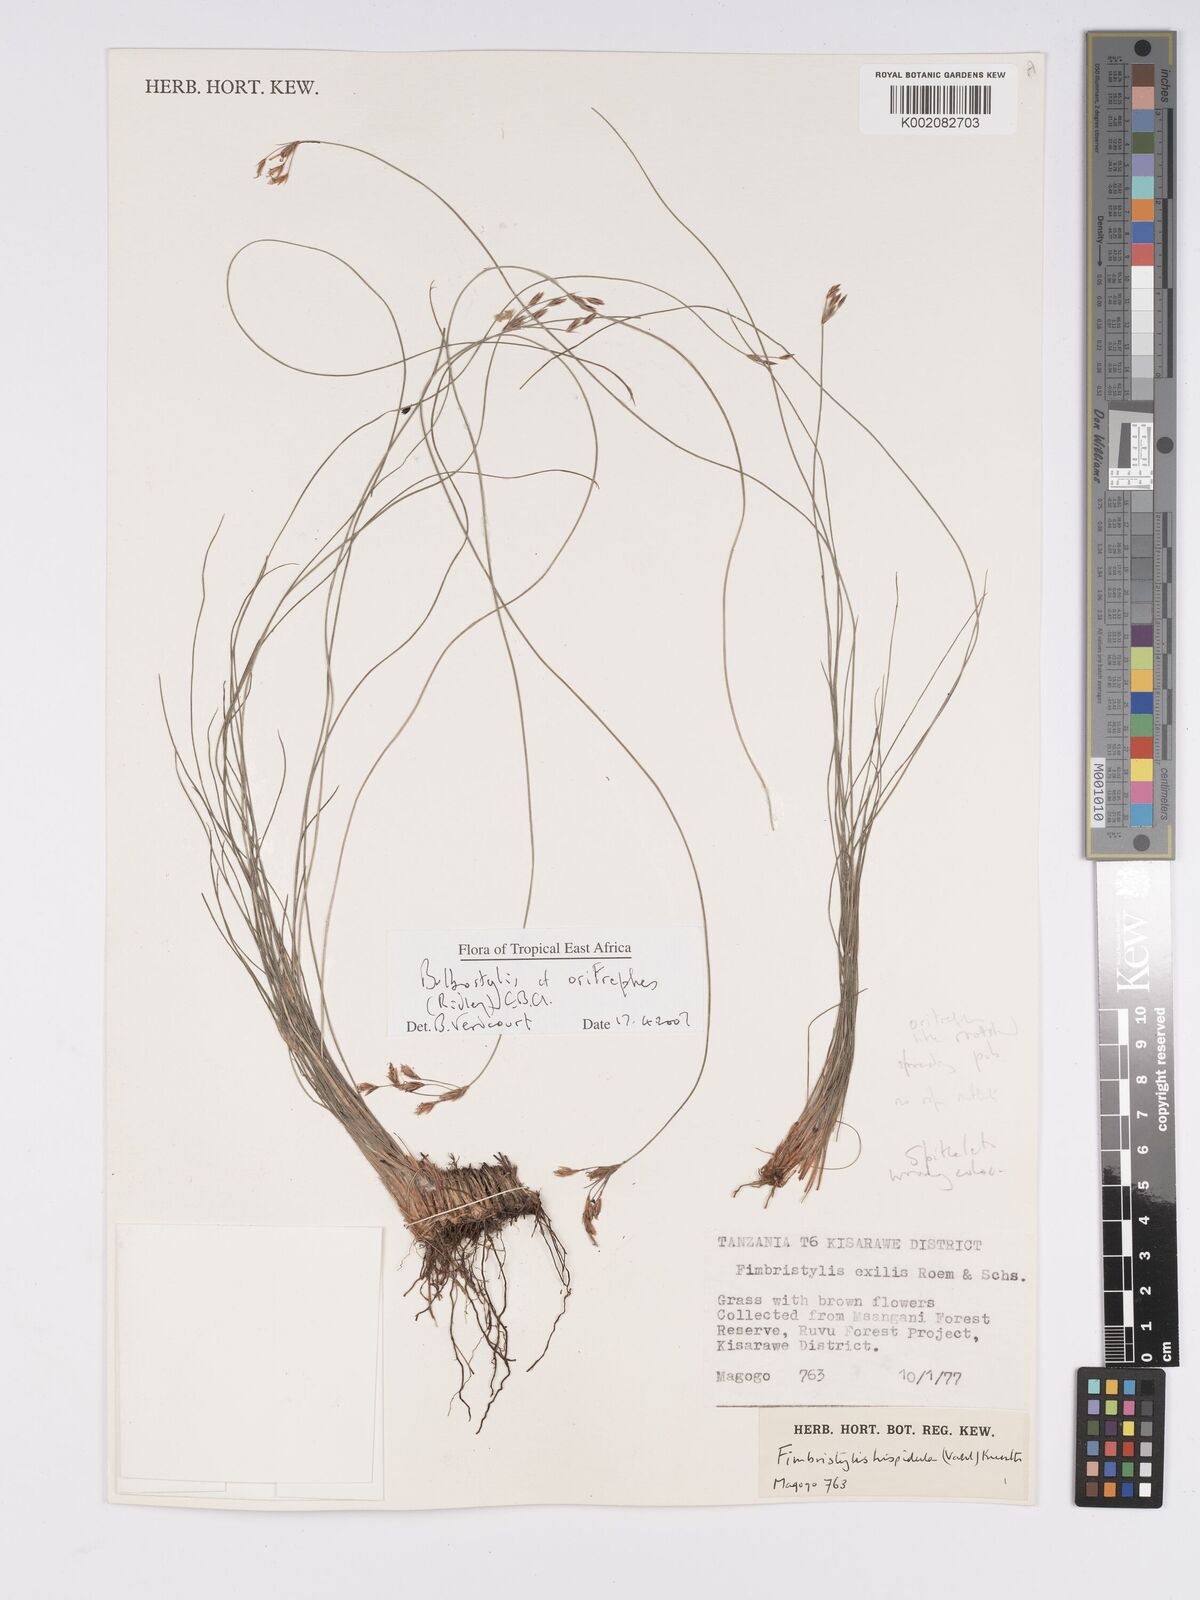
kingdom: Plantae
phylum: Tracheophyta
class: Liliopsida
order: Poales
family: Cyperaceae
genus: Bulbostylis
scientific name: Bulbostylis oritrephes
